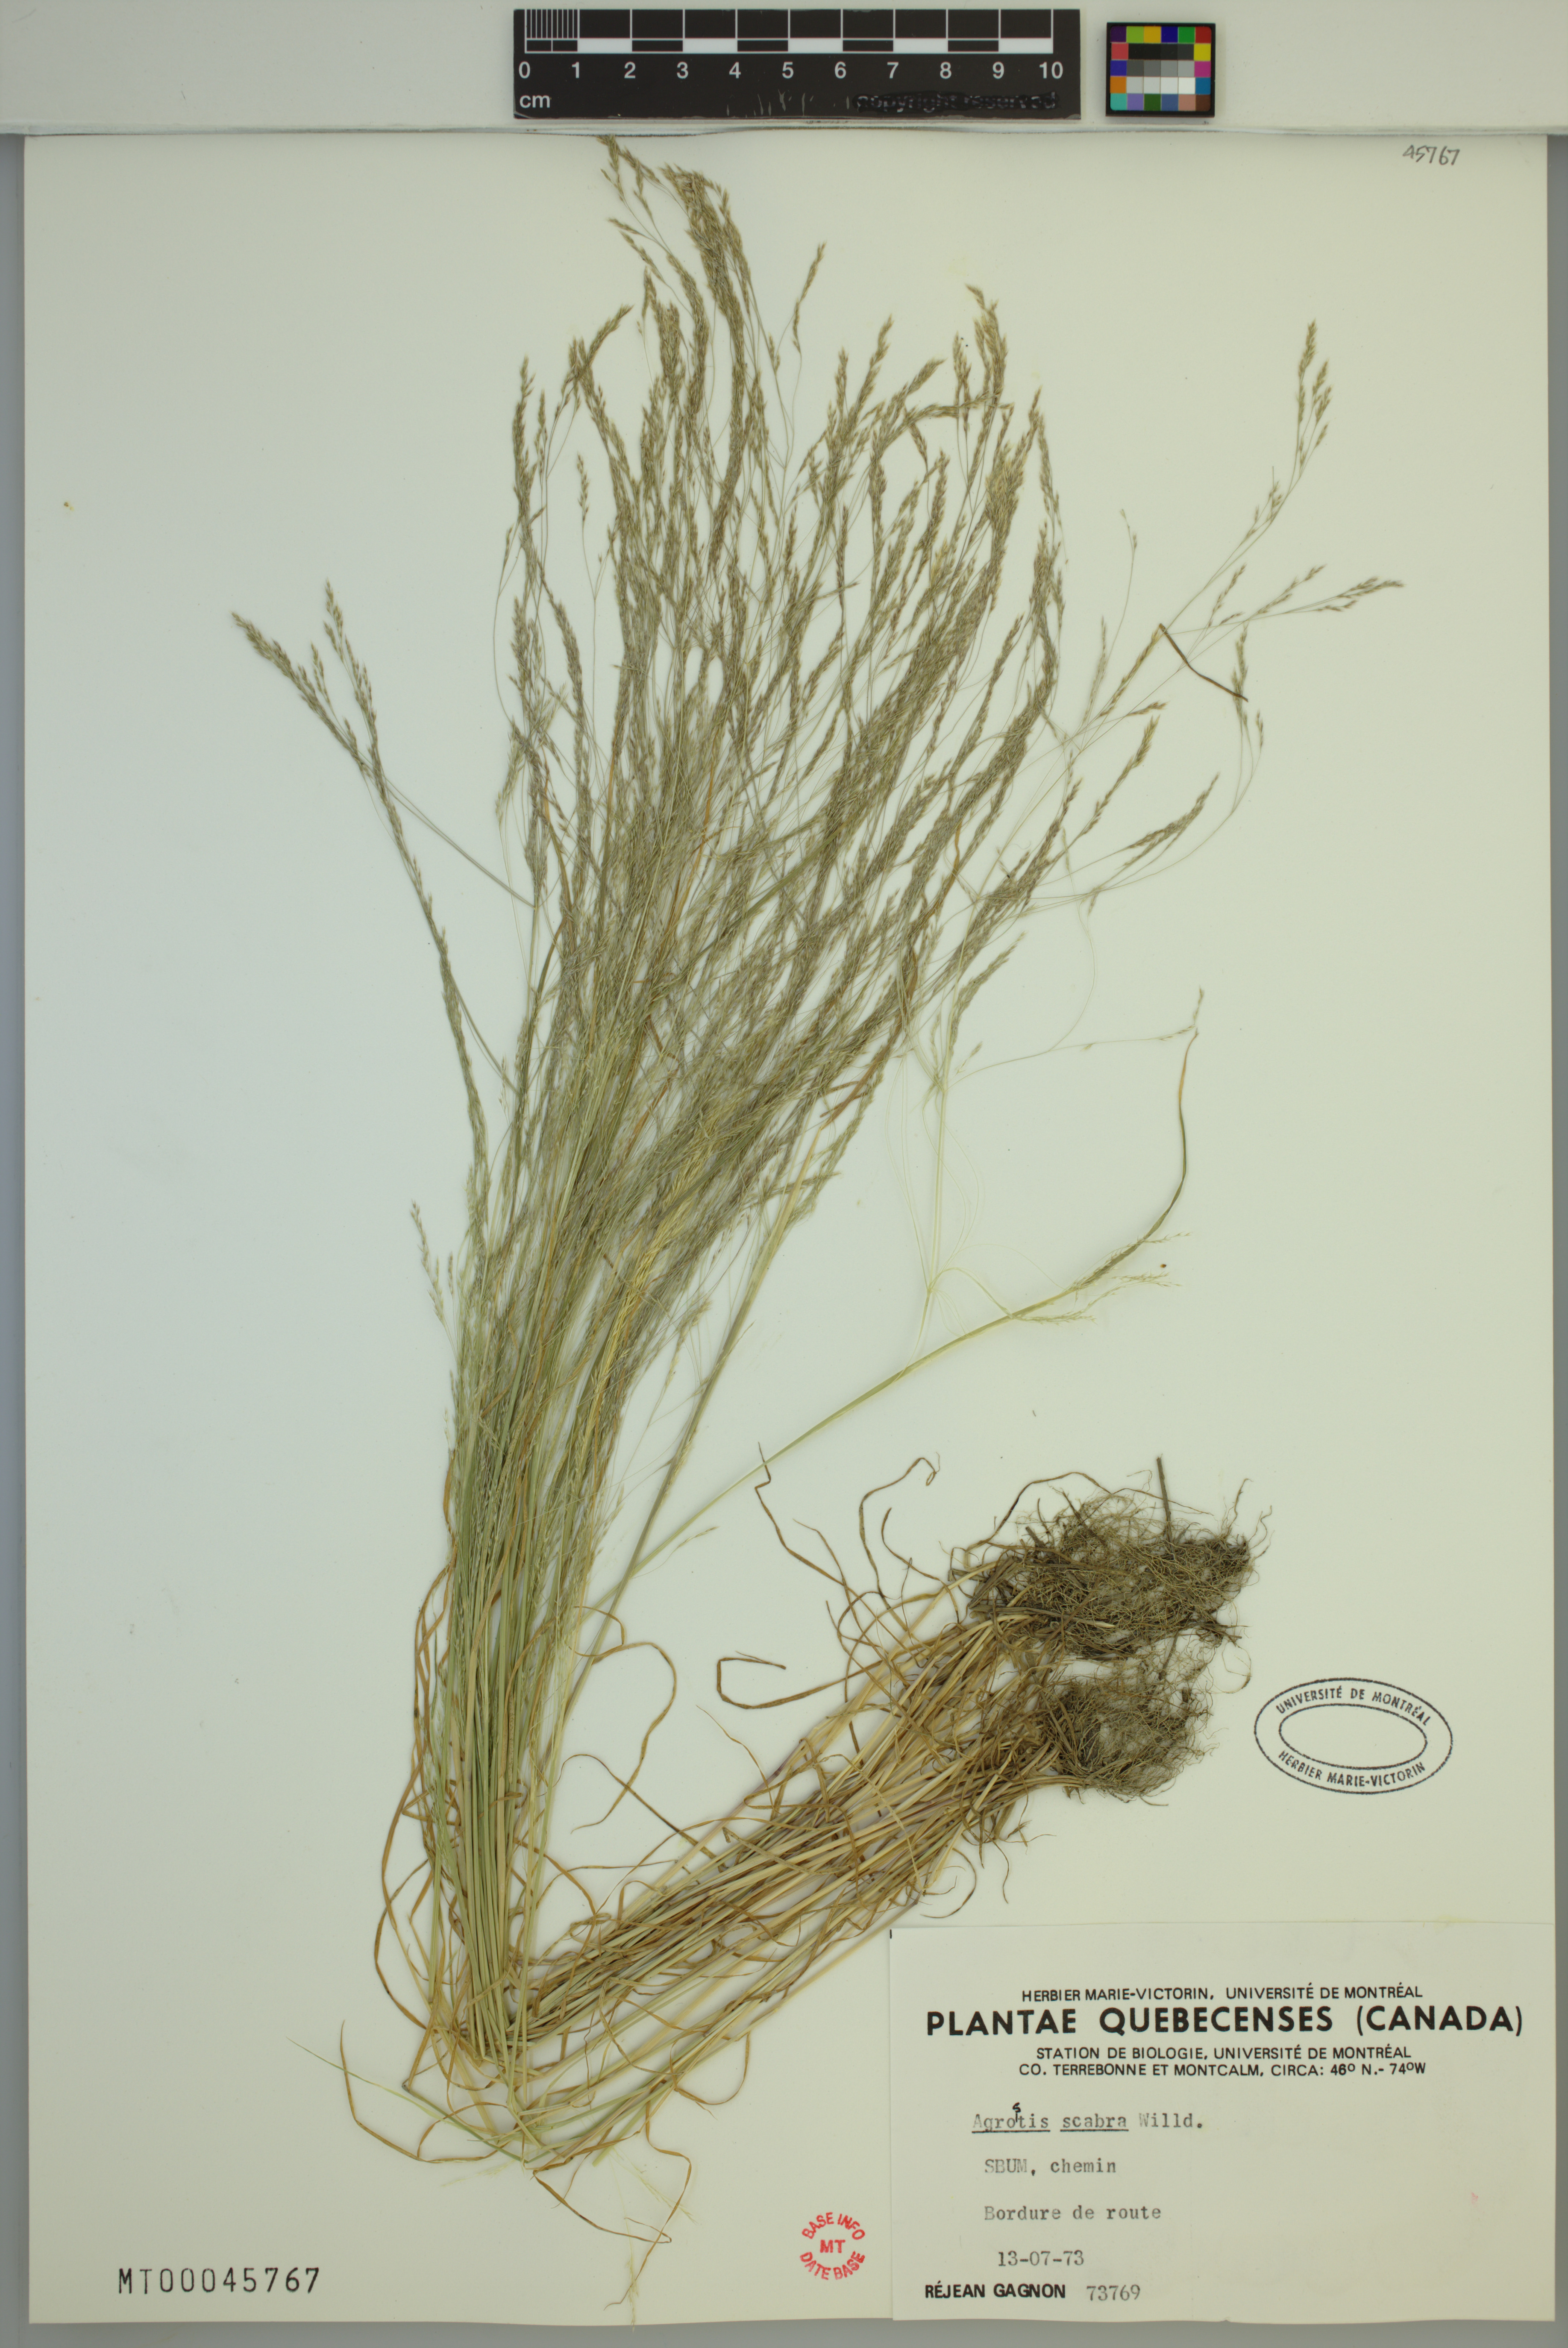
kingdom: Plantae
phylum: Tracheophyta
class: Liliopsida
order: Poales
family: Poaceae
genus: Agrostis
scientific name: Agrostis scabra
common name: Rough bent
